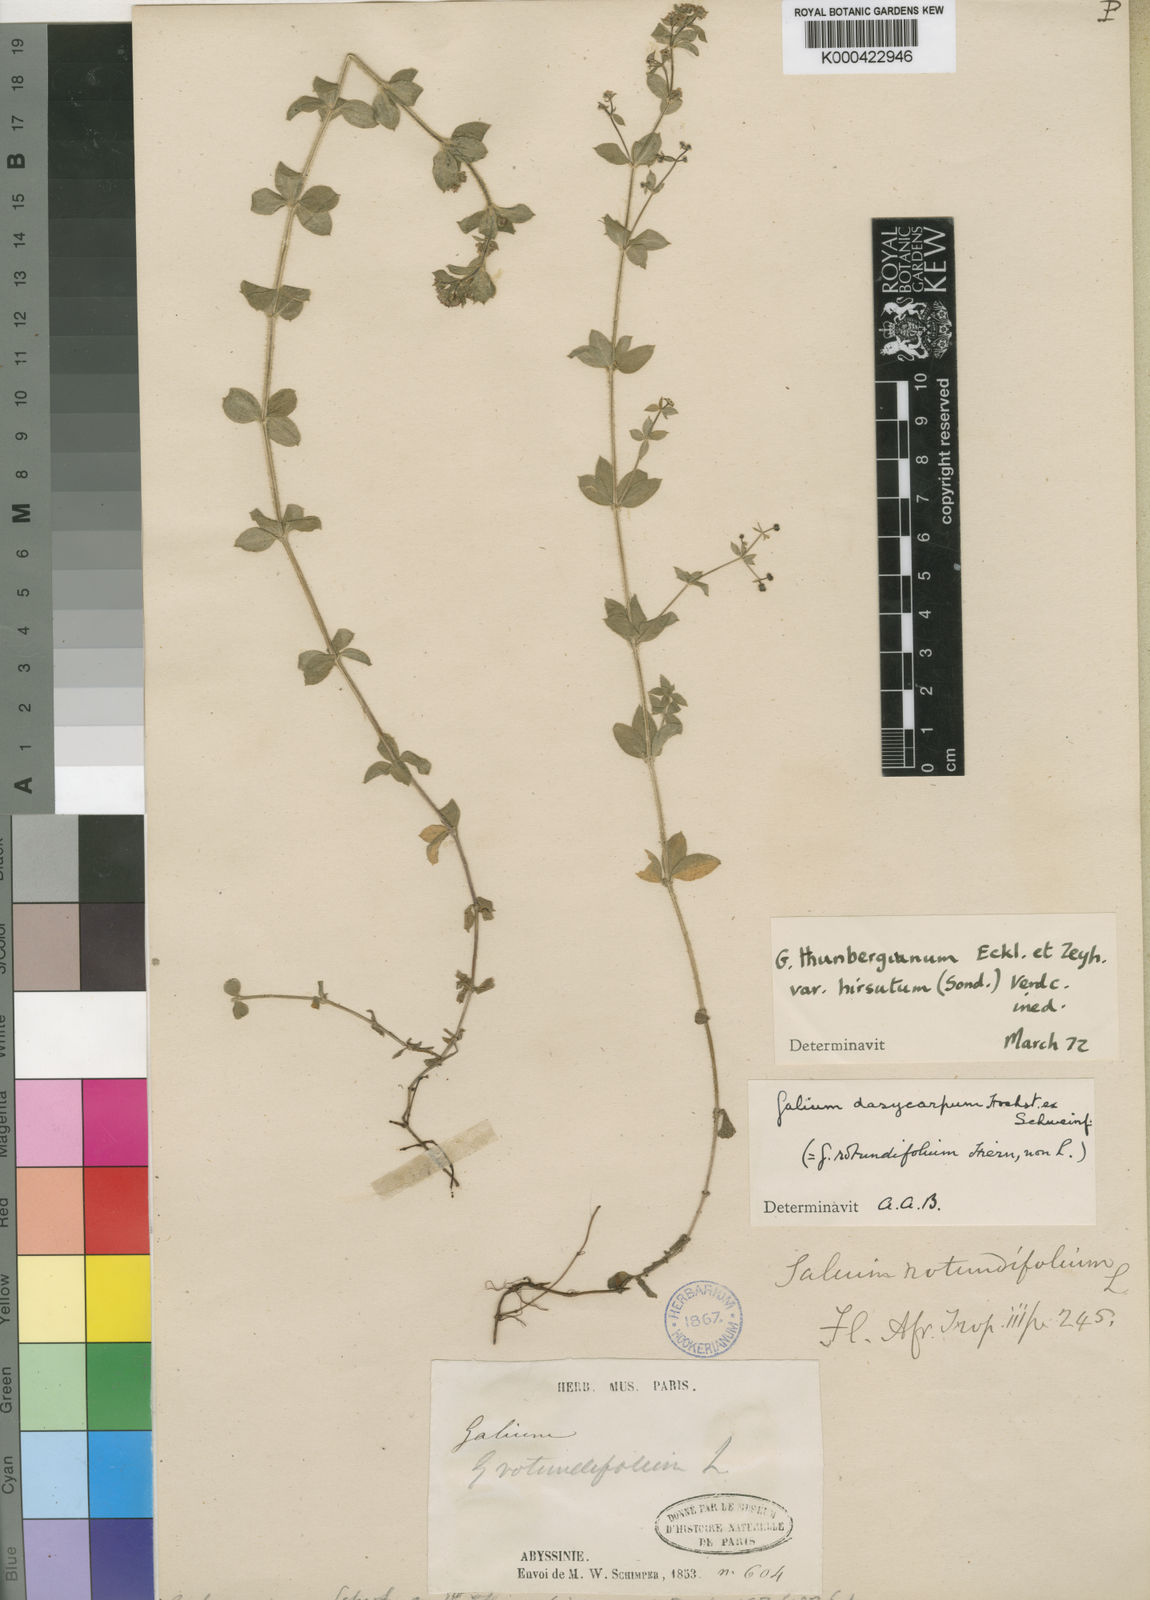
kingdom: Plantae
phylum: Tracheophyta
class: Magnoliopsida
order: Gentianales
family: Rubiaceae
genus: Galium
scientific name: Galium thunbergianum
